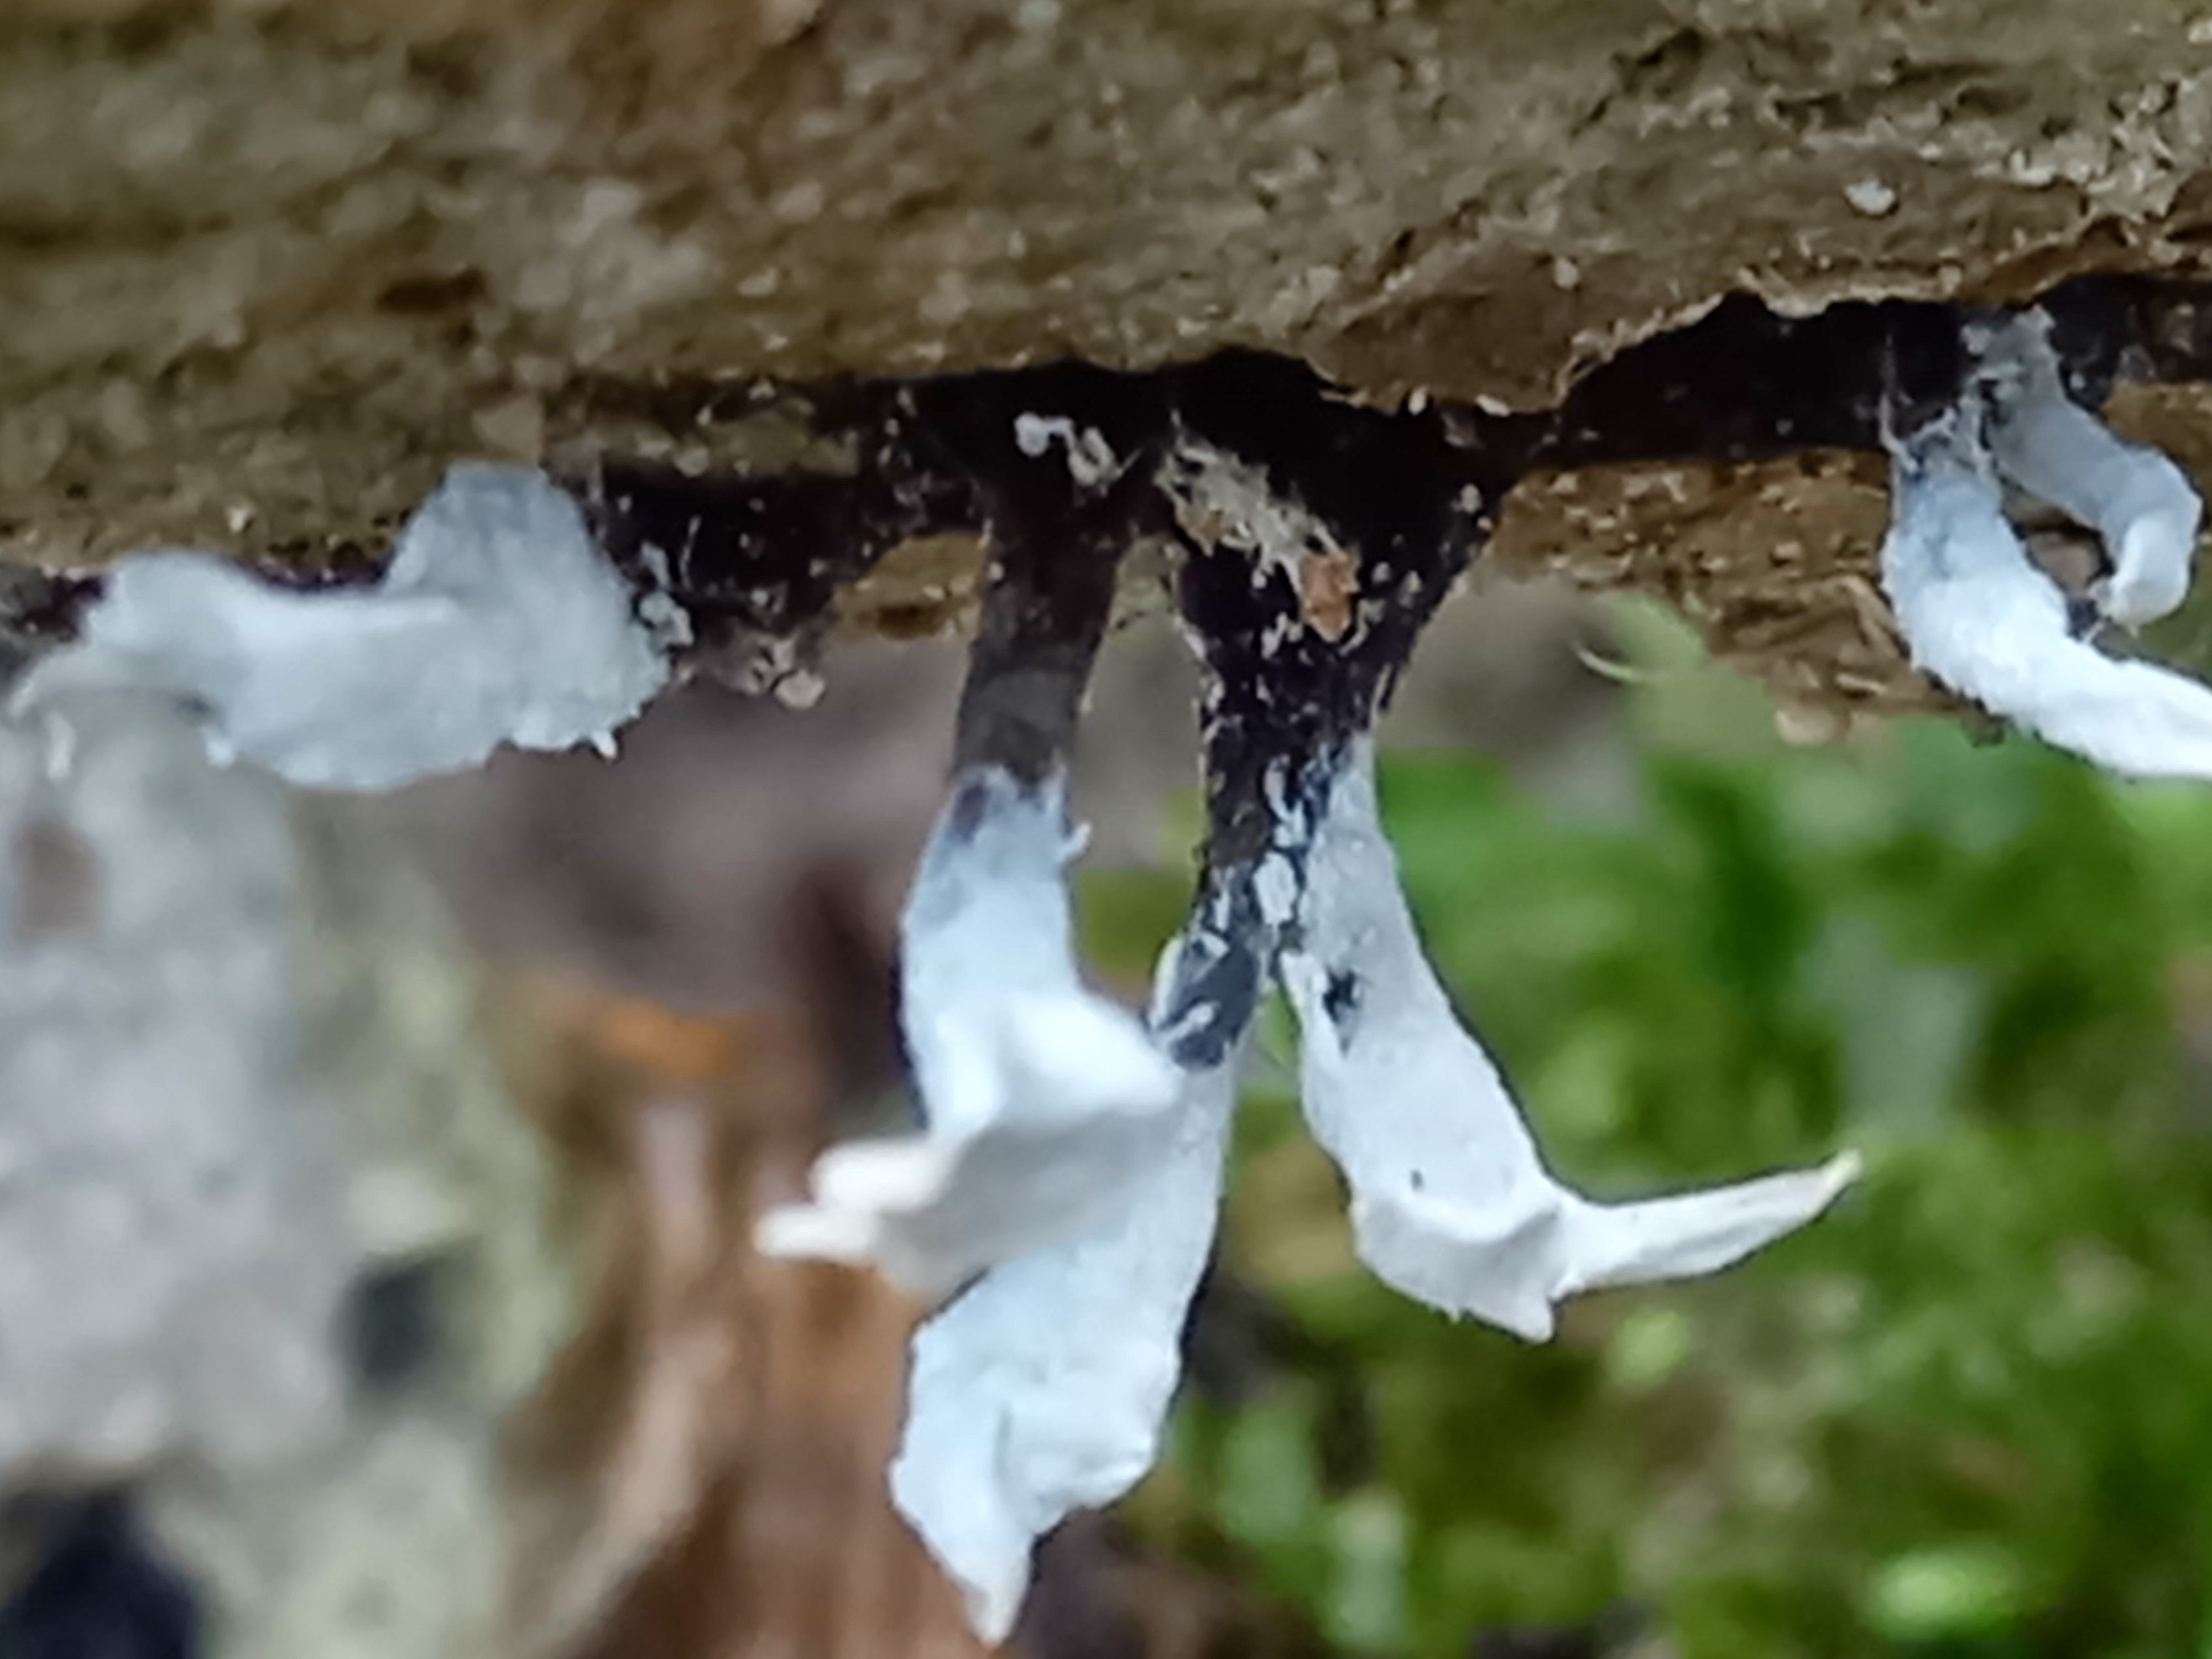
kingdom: Fungi
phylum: Ascomycota
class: Sordariomycetes
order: Xylariales
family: Xylariaceae
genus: Xylaria
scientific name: Xylaria hypoxylon
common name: grenet stødsvamp
